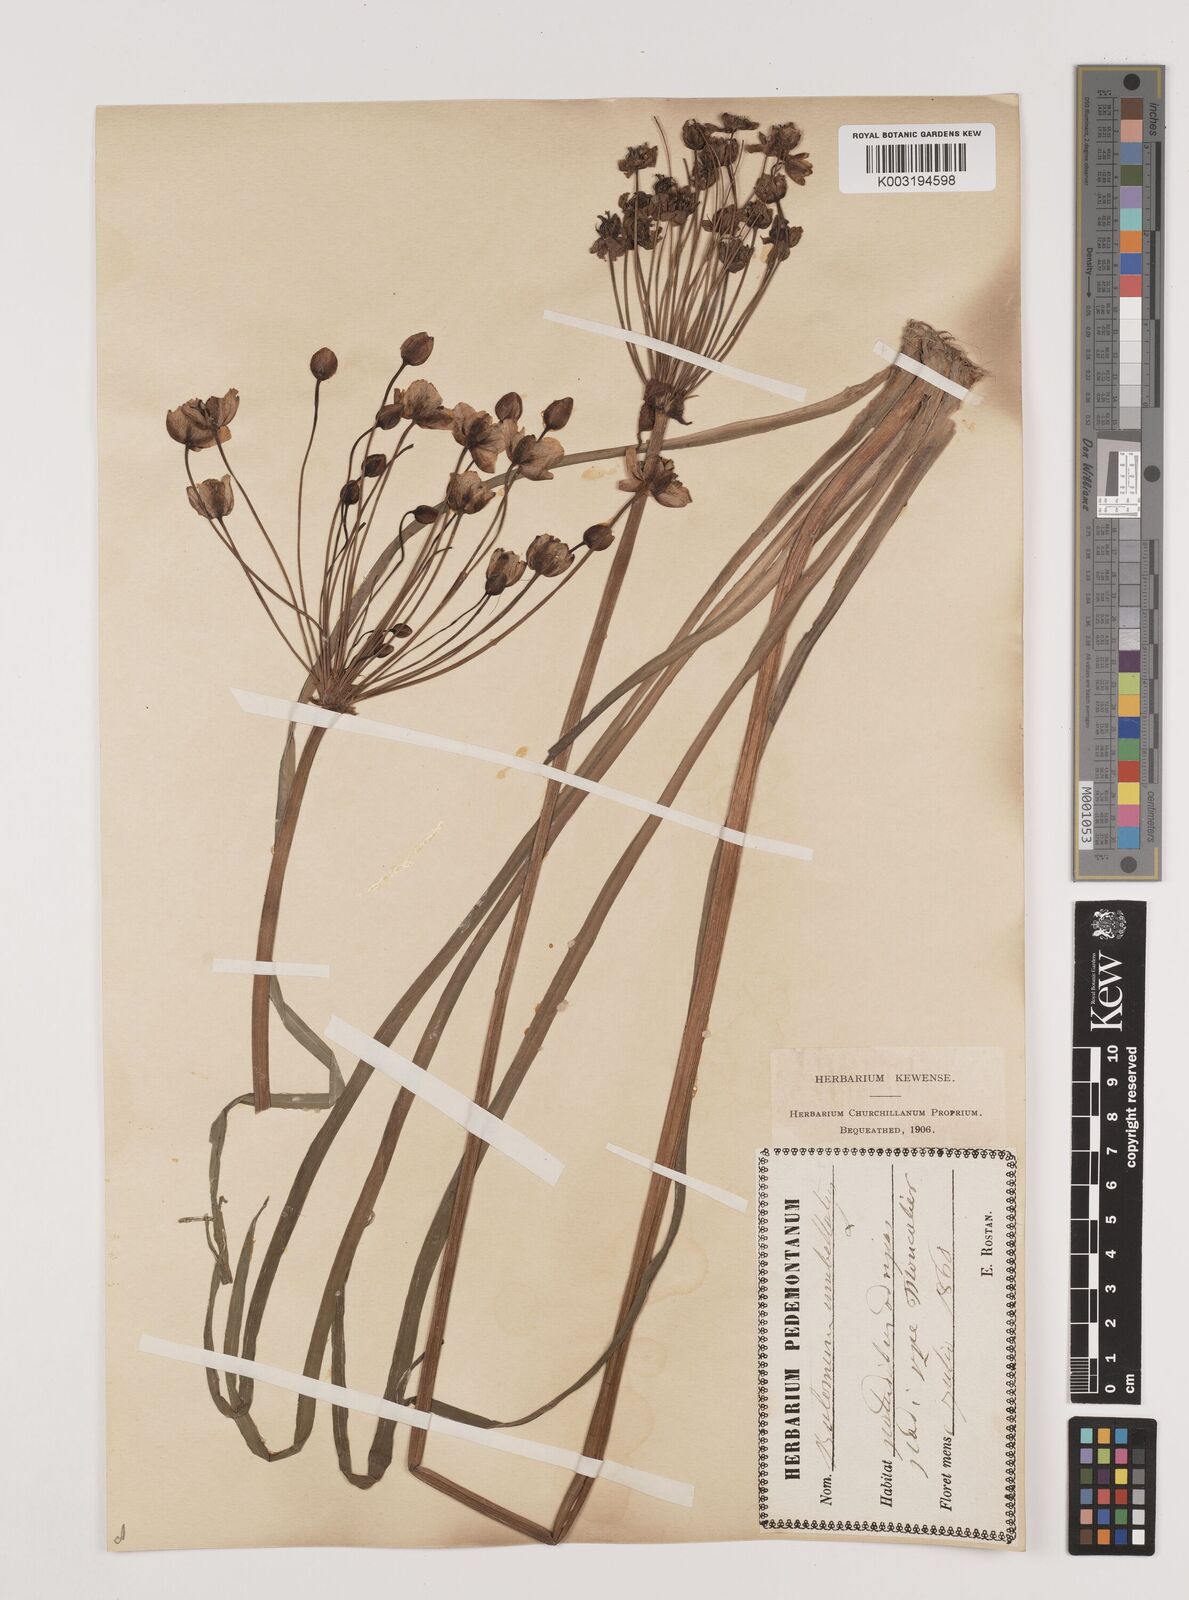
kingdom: Plantae
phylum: Tracheophyta
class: Liliopsida
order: Alismatales
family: Butomaceae
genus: Butomus
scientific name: Butomus umbellatus
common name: Flowering-rush
